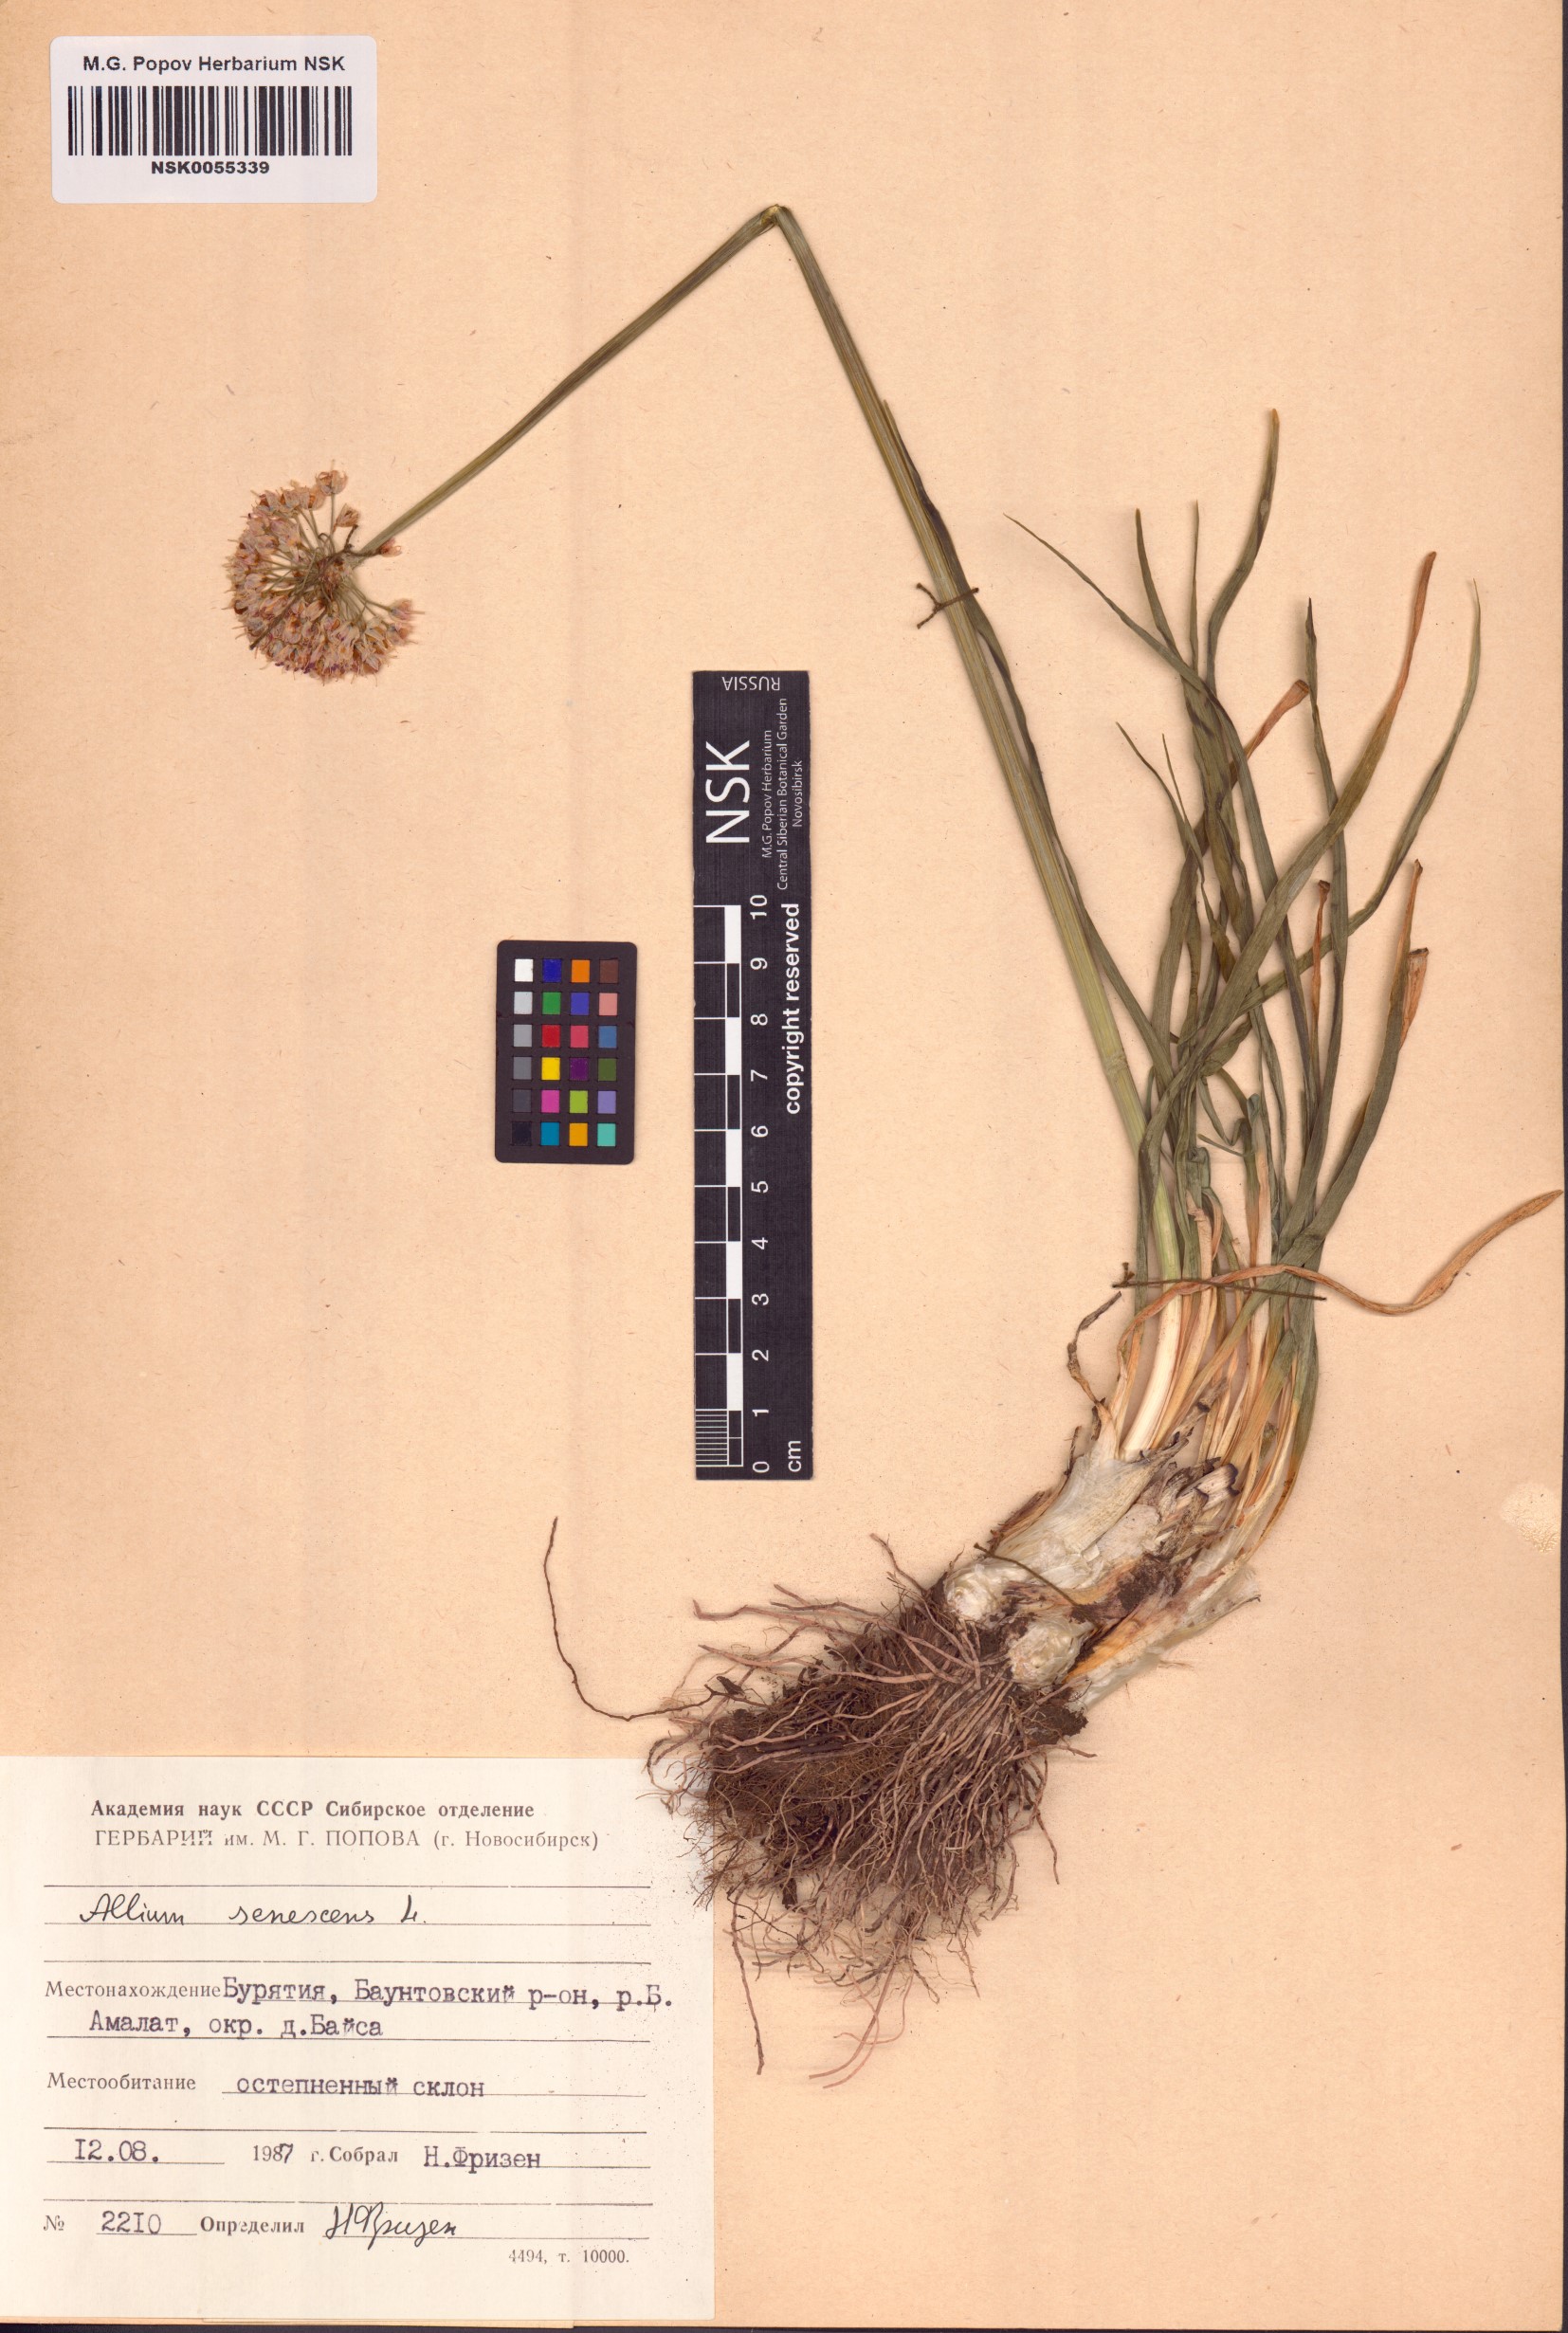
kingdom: Plantae
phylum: Tracheophyta
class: Liliopsida
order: Asparagales
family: Amaryllidaceae
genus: Allium
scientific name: Allium senescens
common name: German garlic
